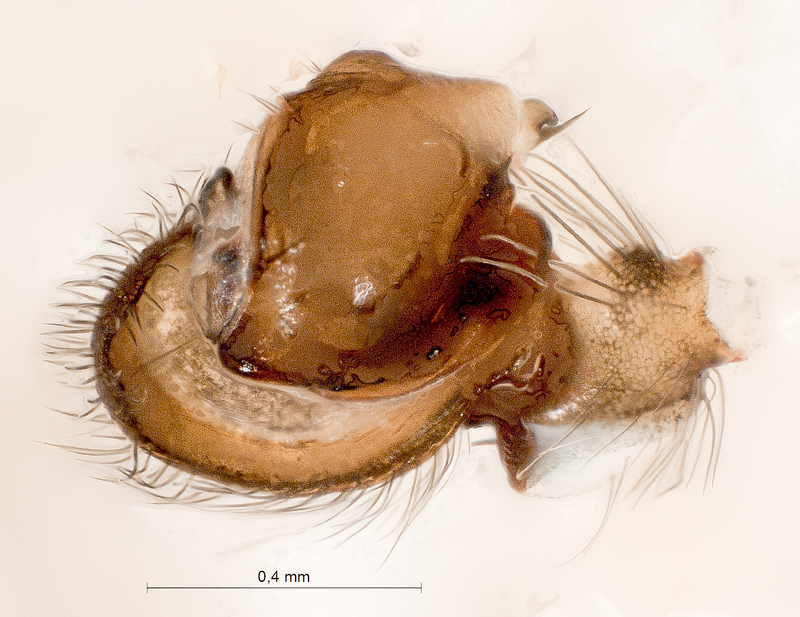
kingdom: Animalia
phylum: Arthropoda
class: Arachnida
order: Araneae
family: Titanoecidae
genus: Titanoeca
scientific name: Titanoeca spominima
